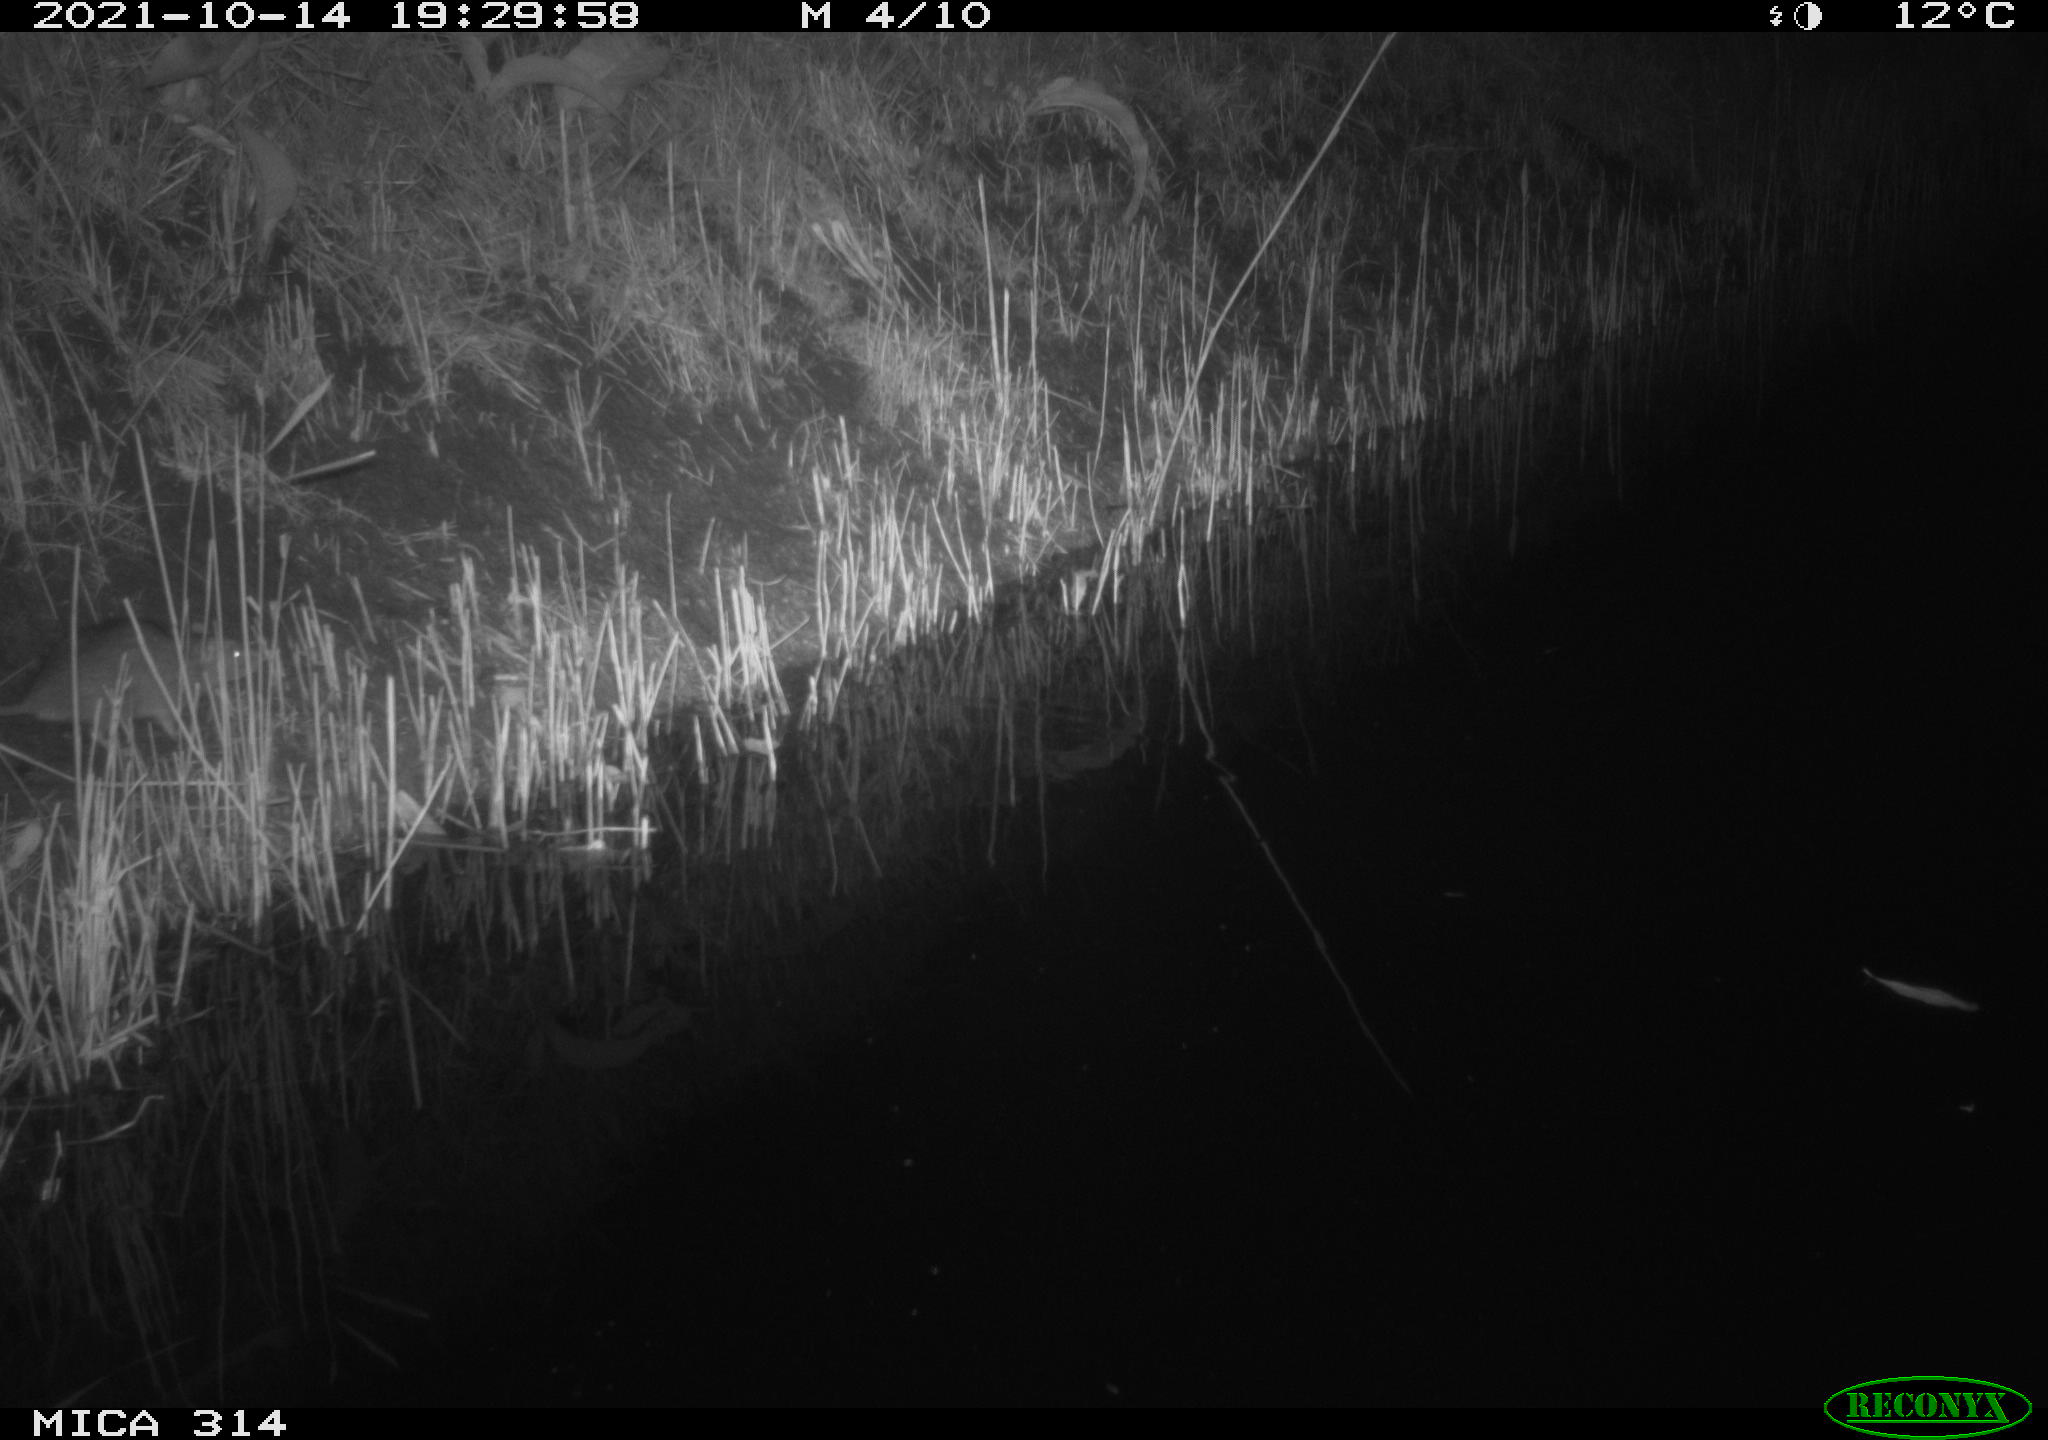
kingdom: Animalia
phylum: Chordata
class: Mammalia
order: Rodentia
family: Muridae
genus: Rattus
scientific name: Rattus norvegicus
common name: Brown rat
